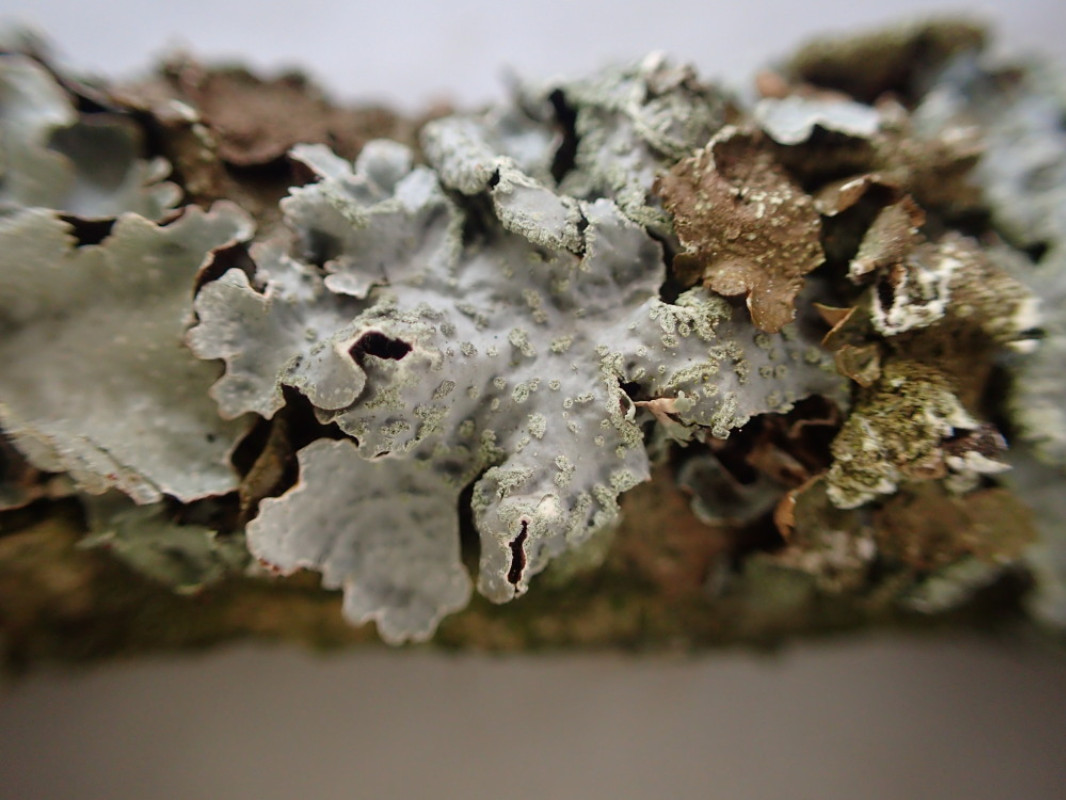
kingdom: Fungi
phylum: Ascomycota
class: Lecanoromycetes
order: Lecanorales
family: Parmeliaceae
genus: Parmelia
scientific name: Parmelia sulcata
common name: rynket skållav
